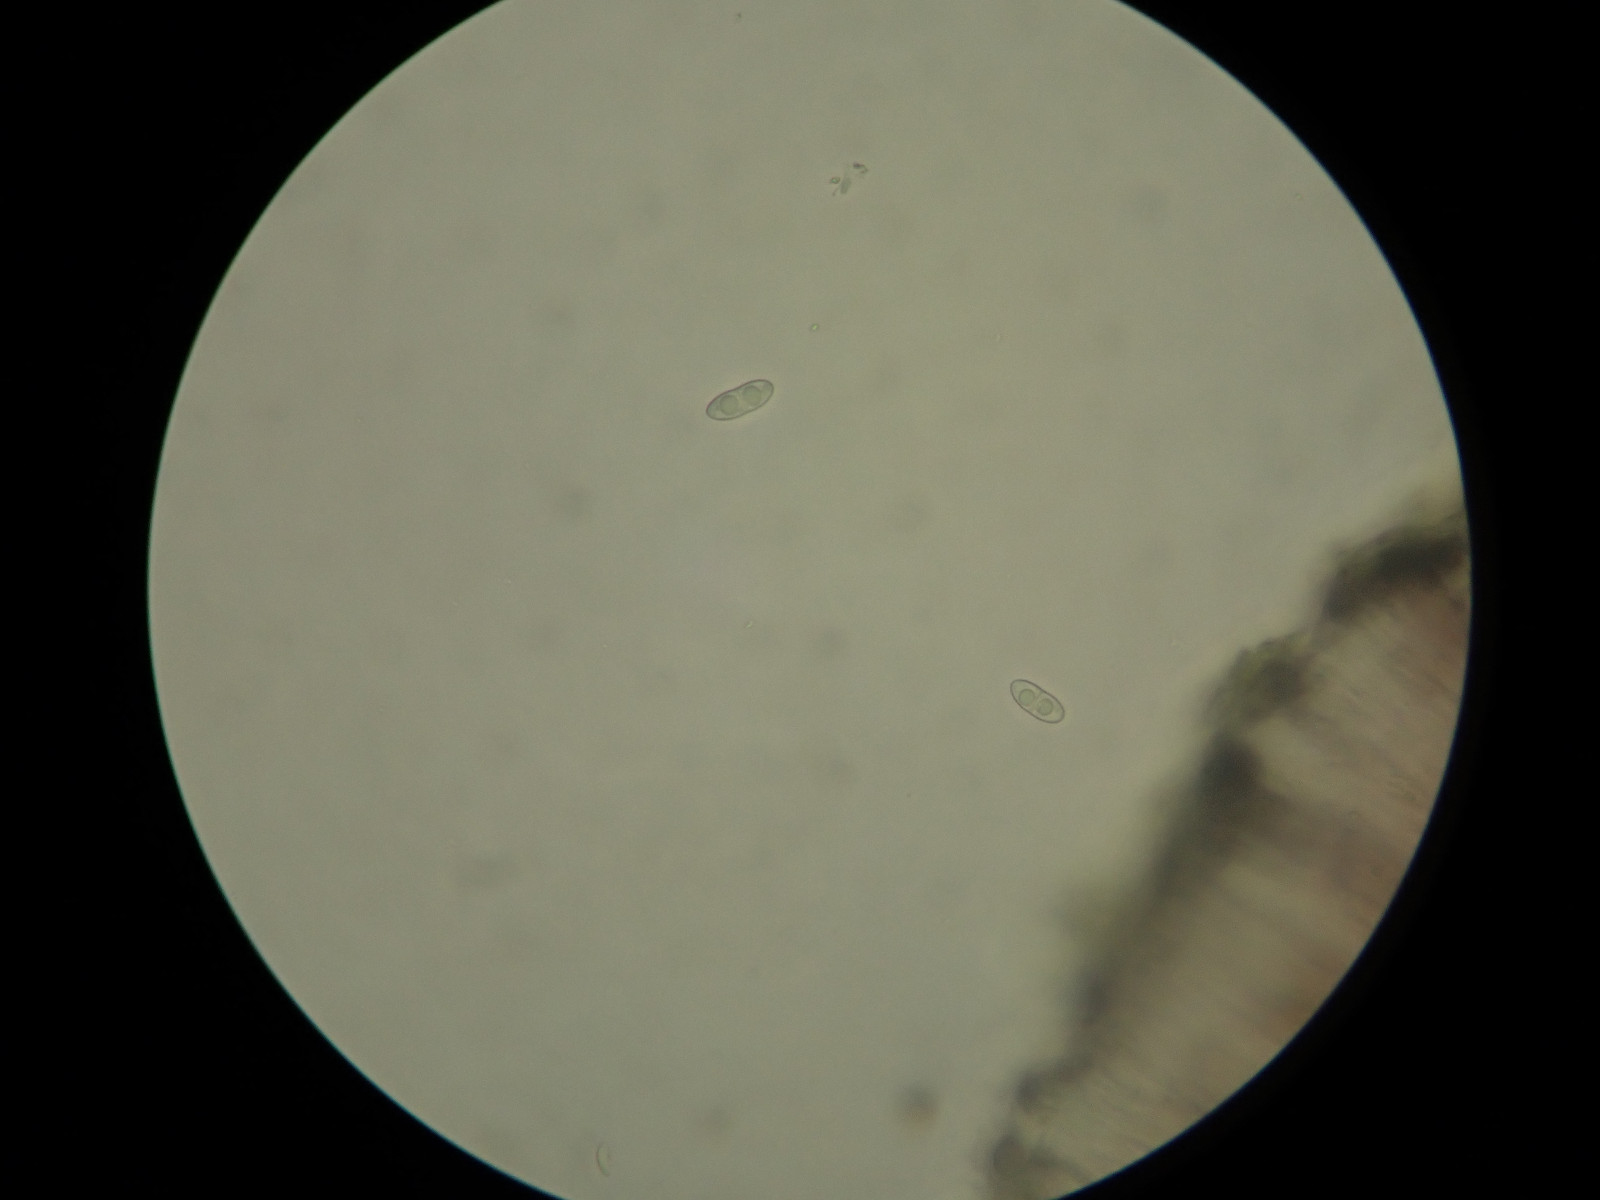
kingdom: Fungi
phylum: Ascomycota
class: Lecanoromycetes
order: Lecanorales
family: Ramalinaceae
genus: Megalaria
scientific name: Megalaria laureri
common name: bøge-megalaria
